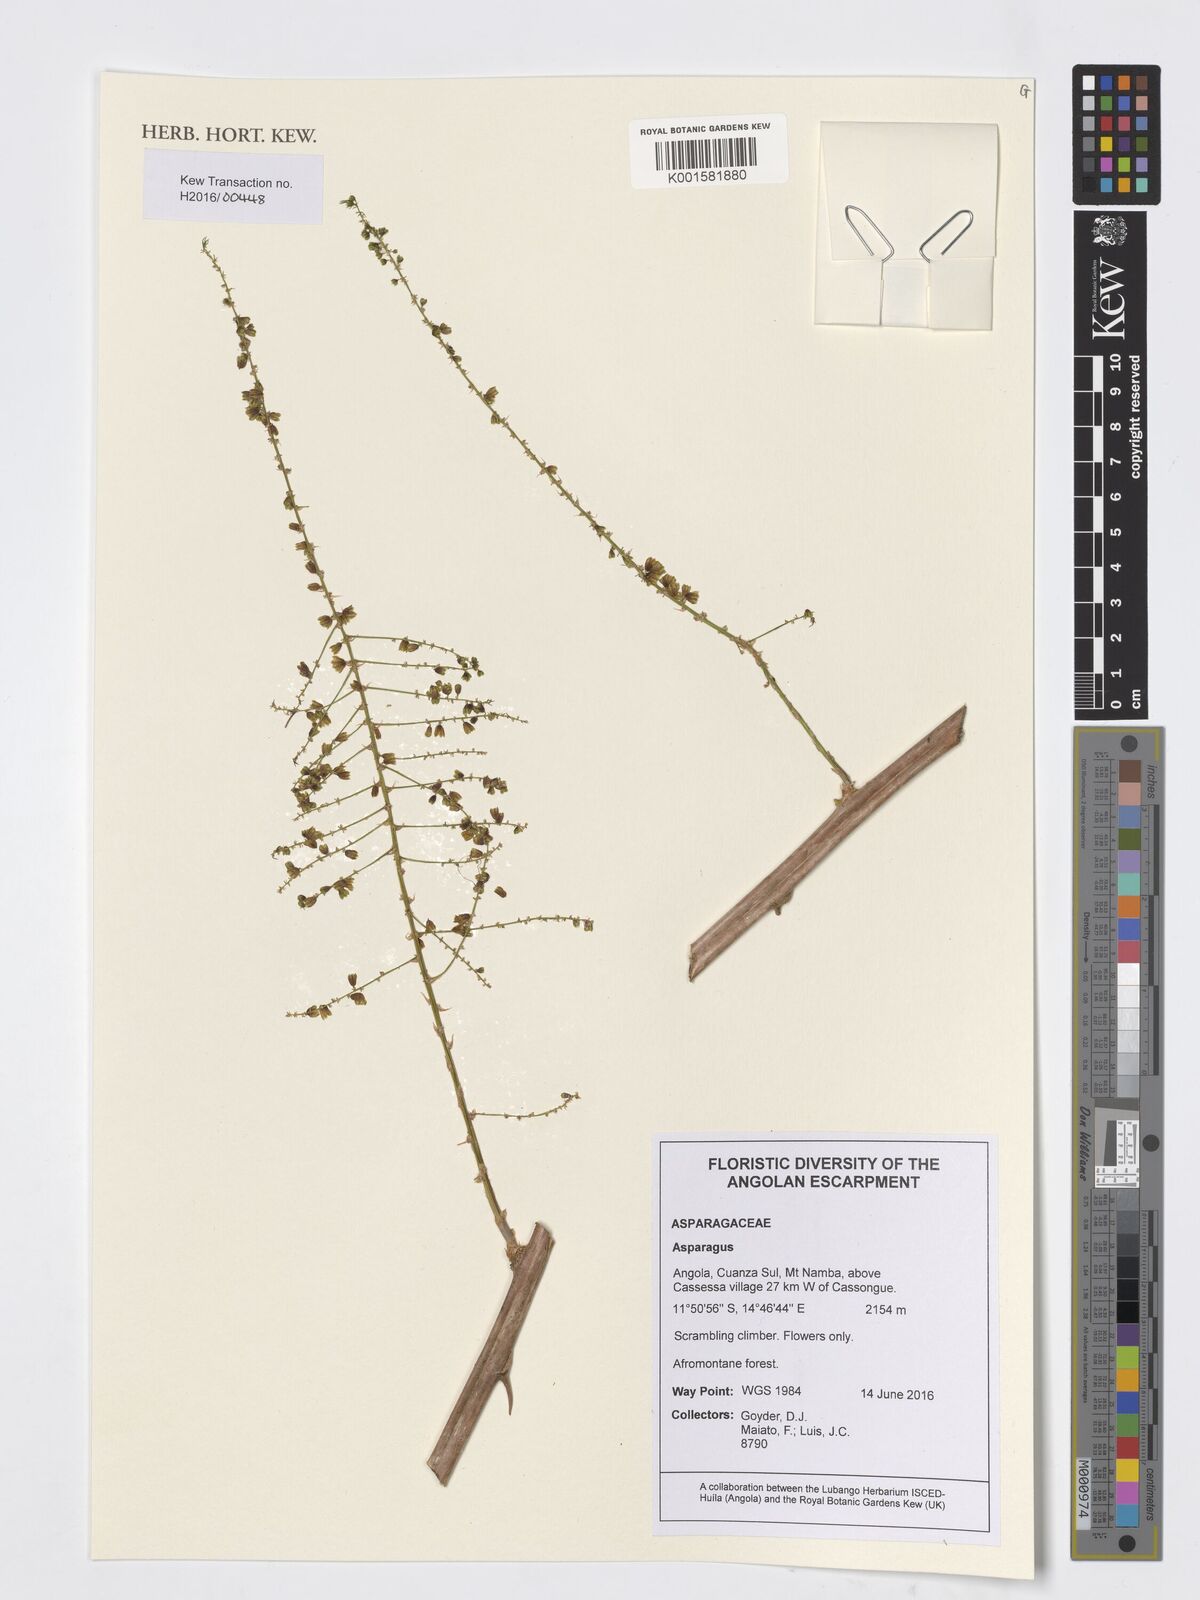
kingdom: Plantae
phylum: Tracheophyta
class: Liliopsida
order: Asparagales
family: Asparagaceae
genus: Asparagus
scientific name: Asparagus
